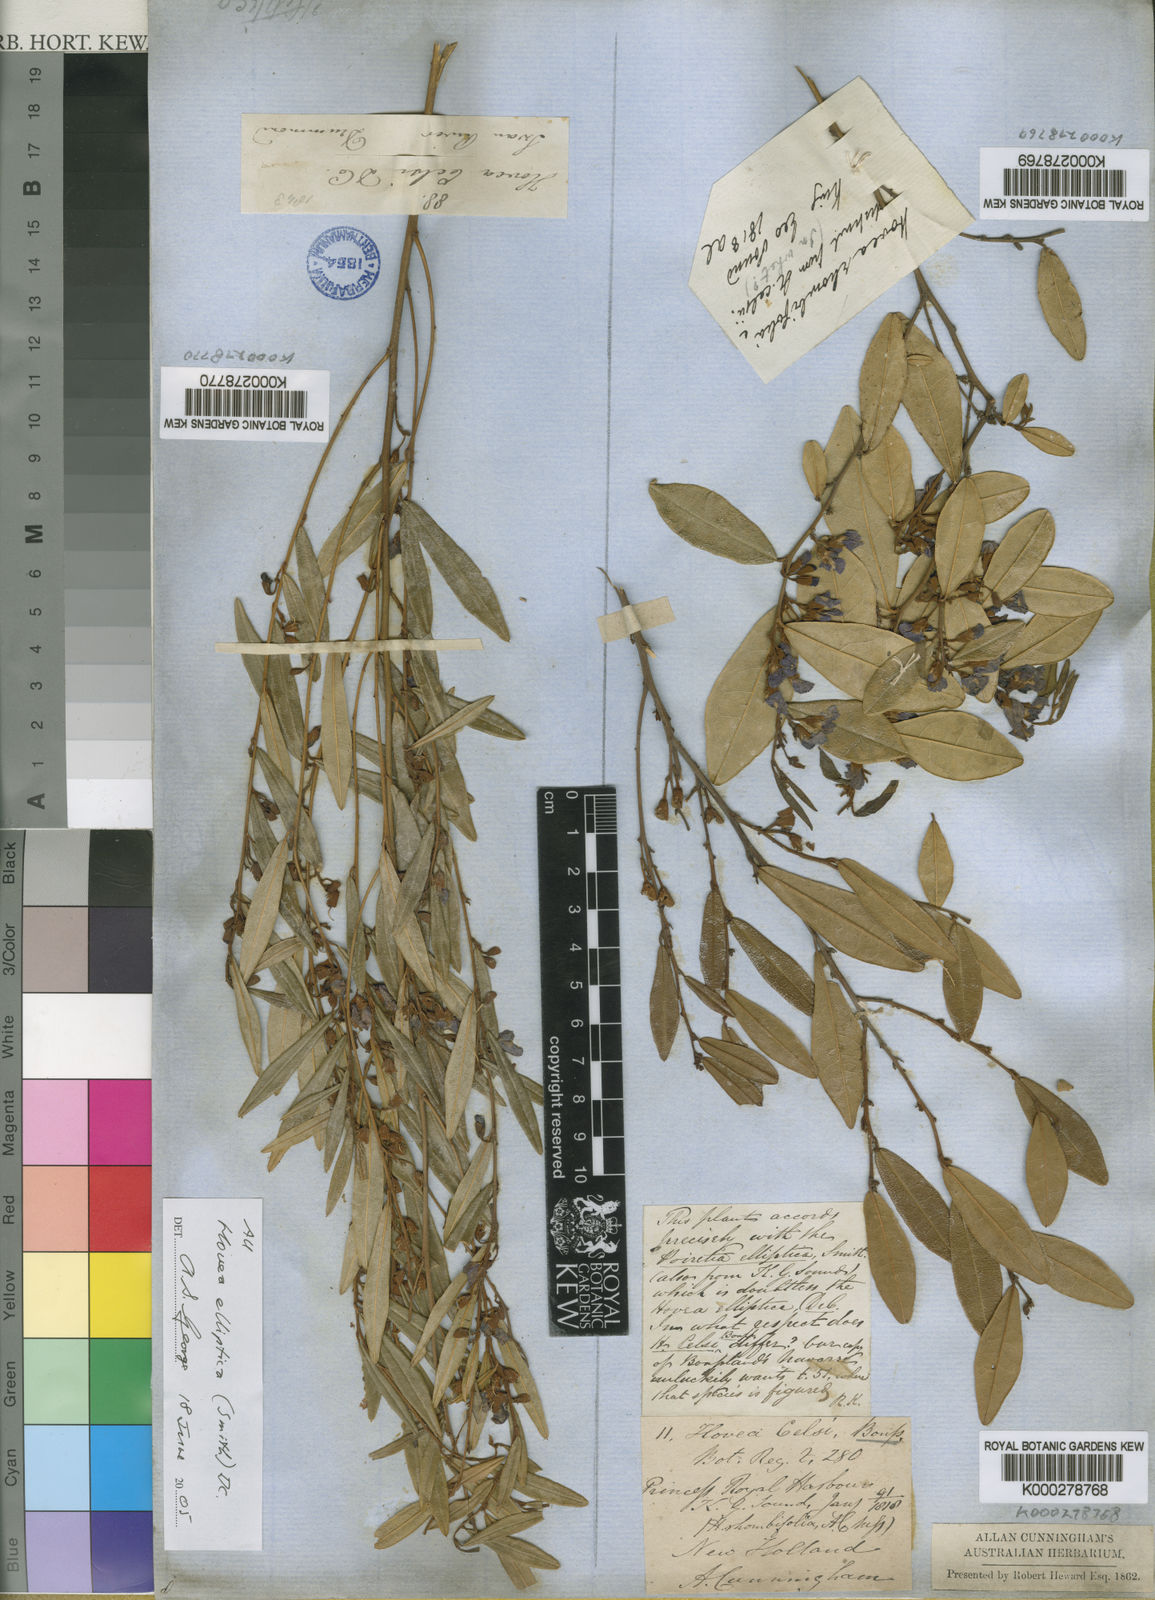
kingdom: Plantae
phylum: Tracheophyta
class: Magnoliopsida
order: Fabales
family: Fabaceae
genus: Hovea
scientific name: Hovea elliptica
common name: Tree hovea
